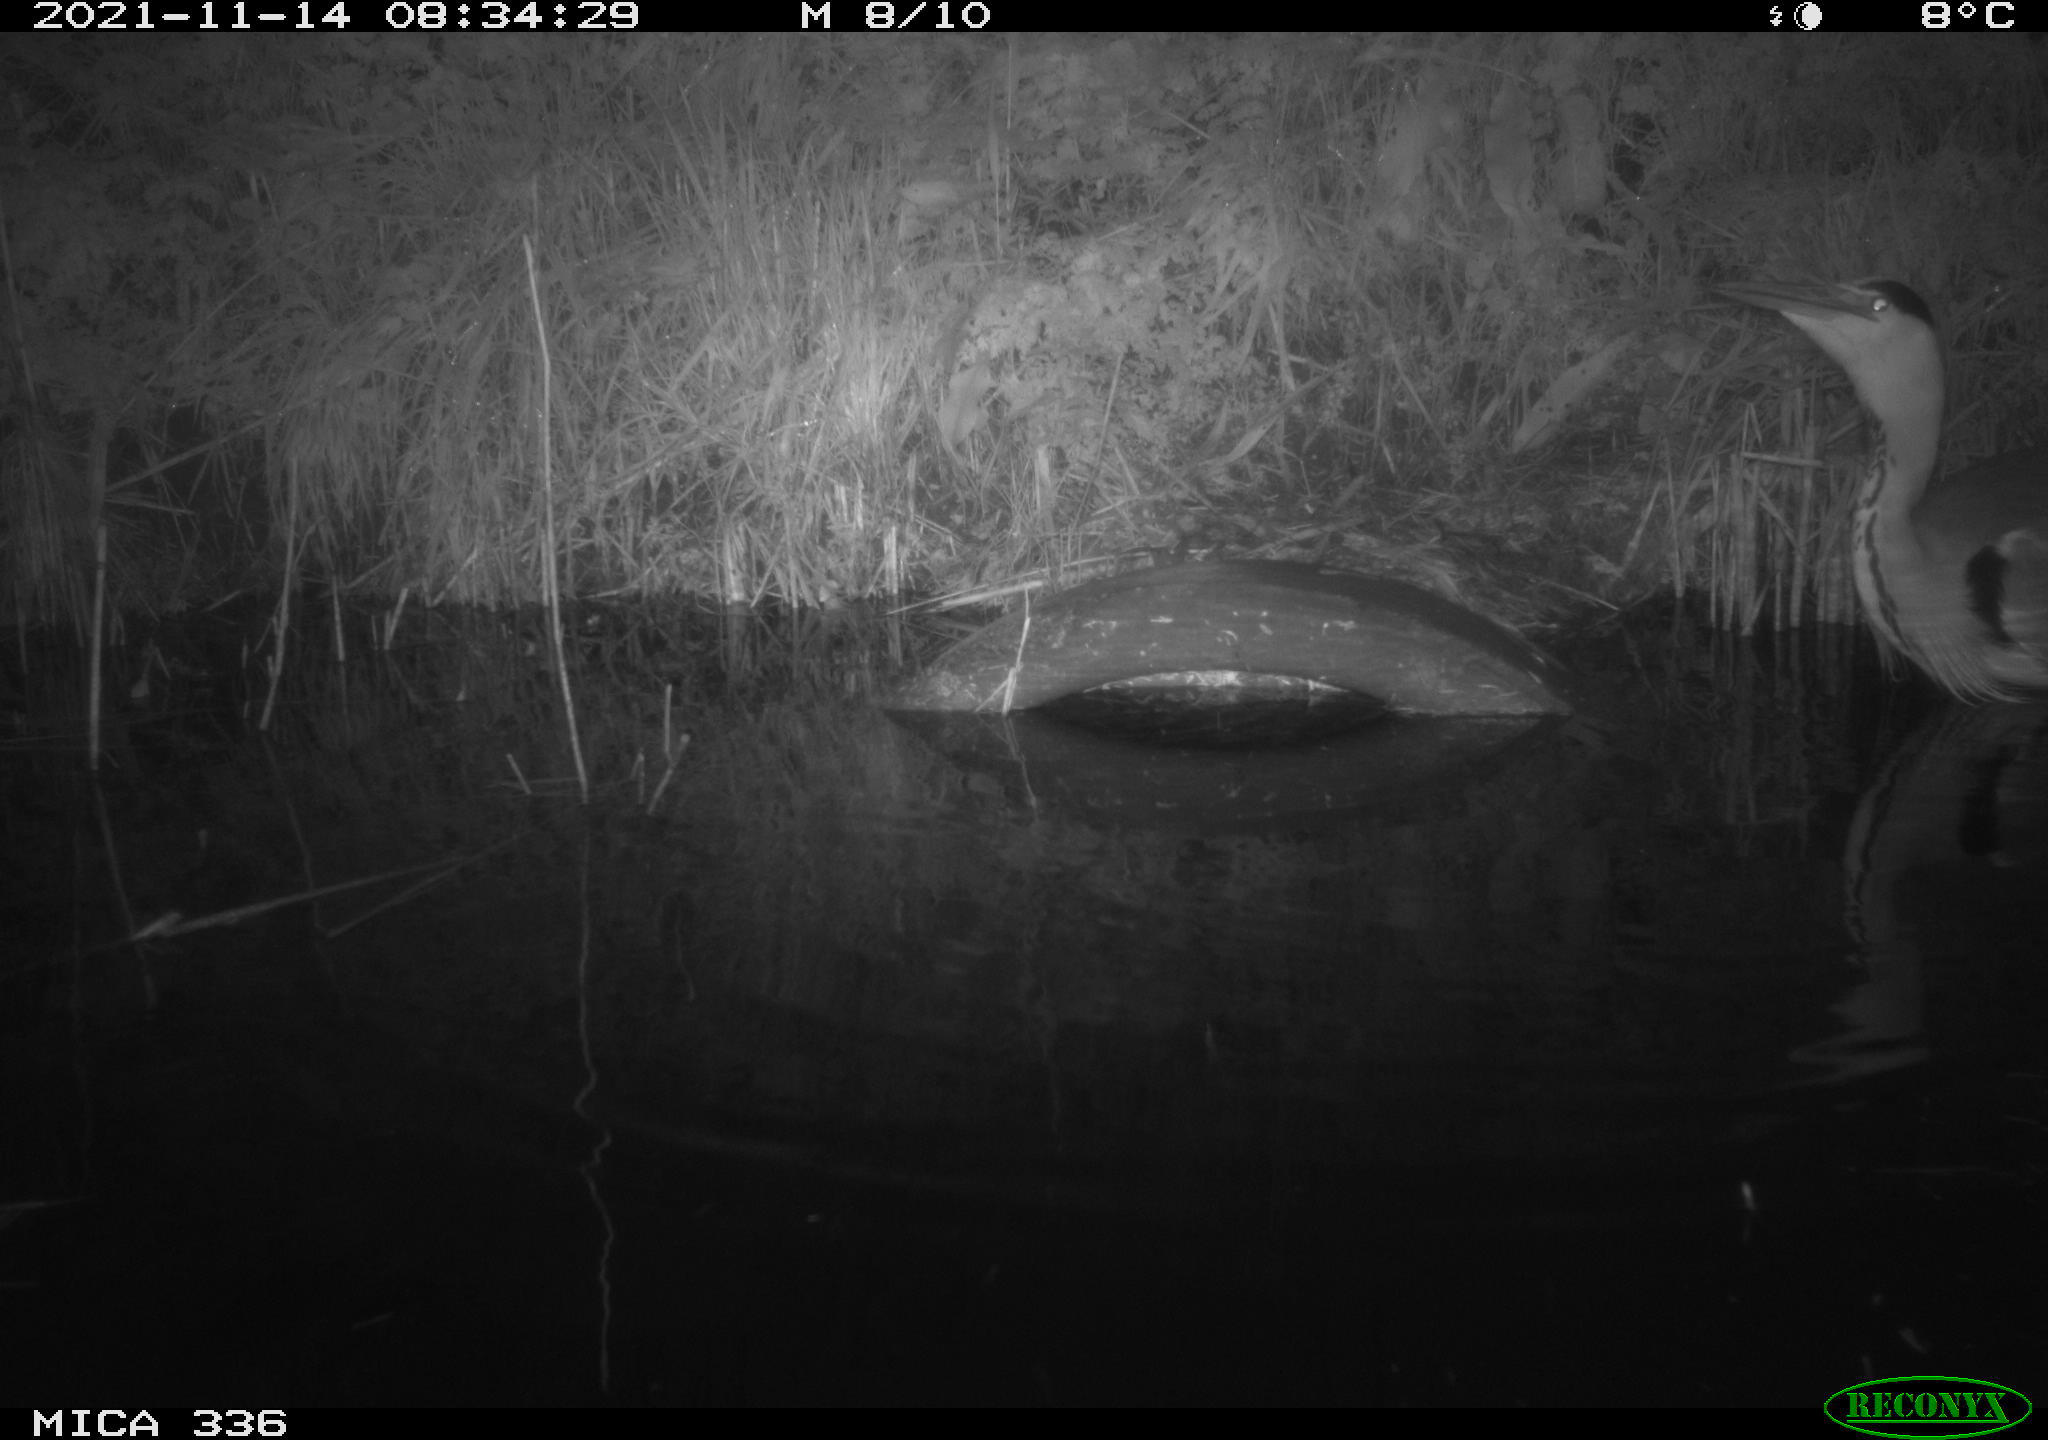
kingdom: Animalia
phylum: Chordata
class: Aves
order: Pelecaniformes
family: Ardeidae
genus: Ardea
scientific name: Ardea cinerea
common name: Grey heron
